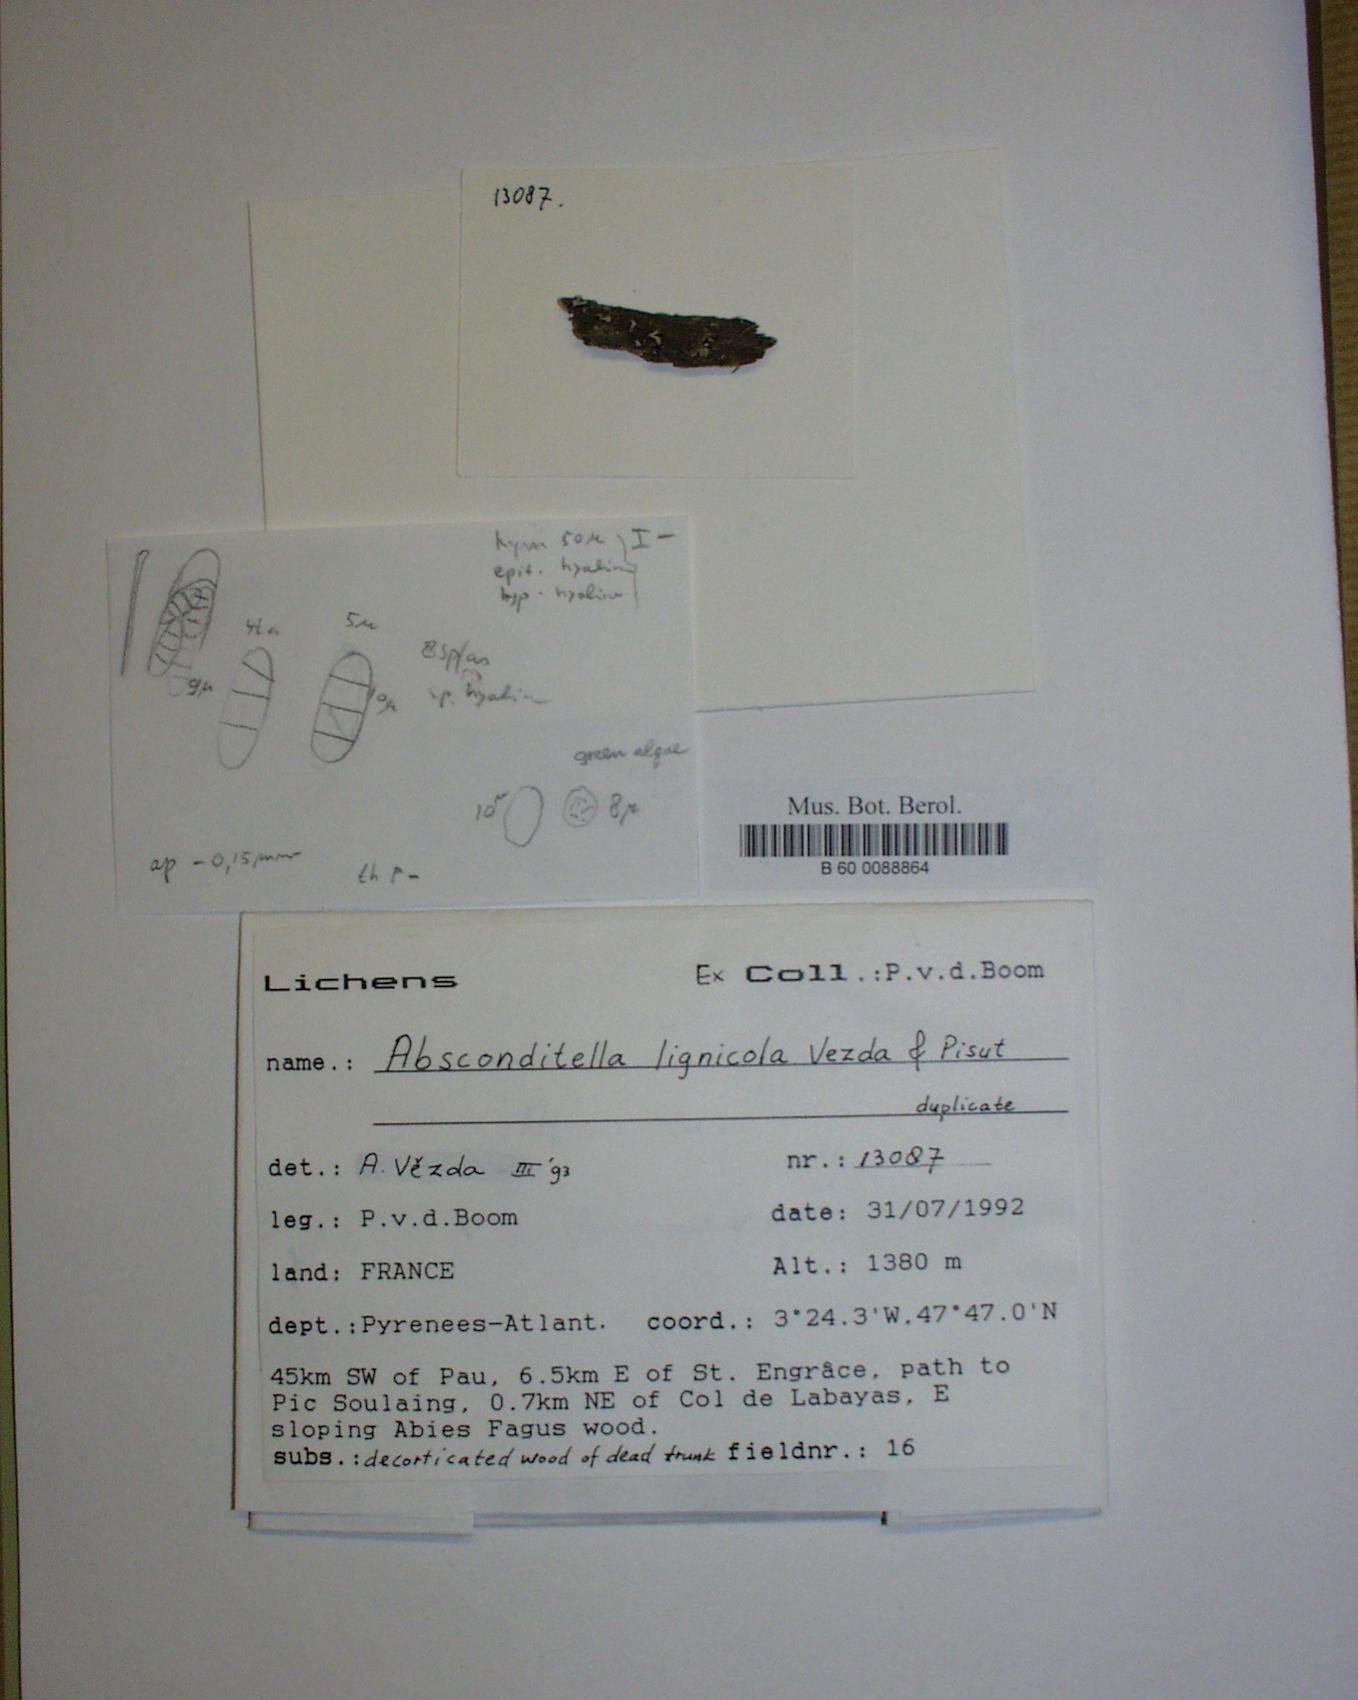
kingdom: Fungi
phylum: Ascomycota
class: Lecanoromycetes
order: Ostropales
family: Stictidaceae
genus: Absconditella
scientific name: Absconditella lignicola
